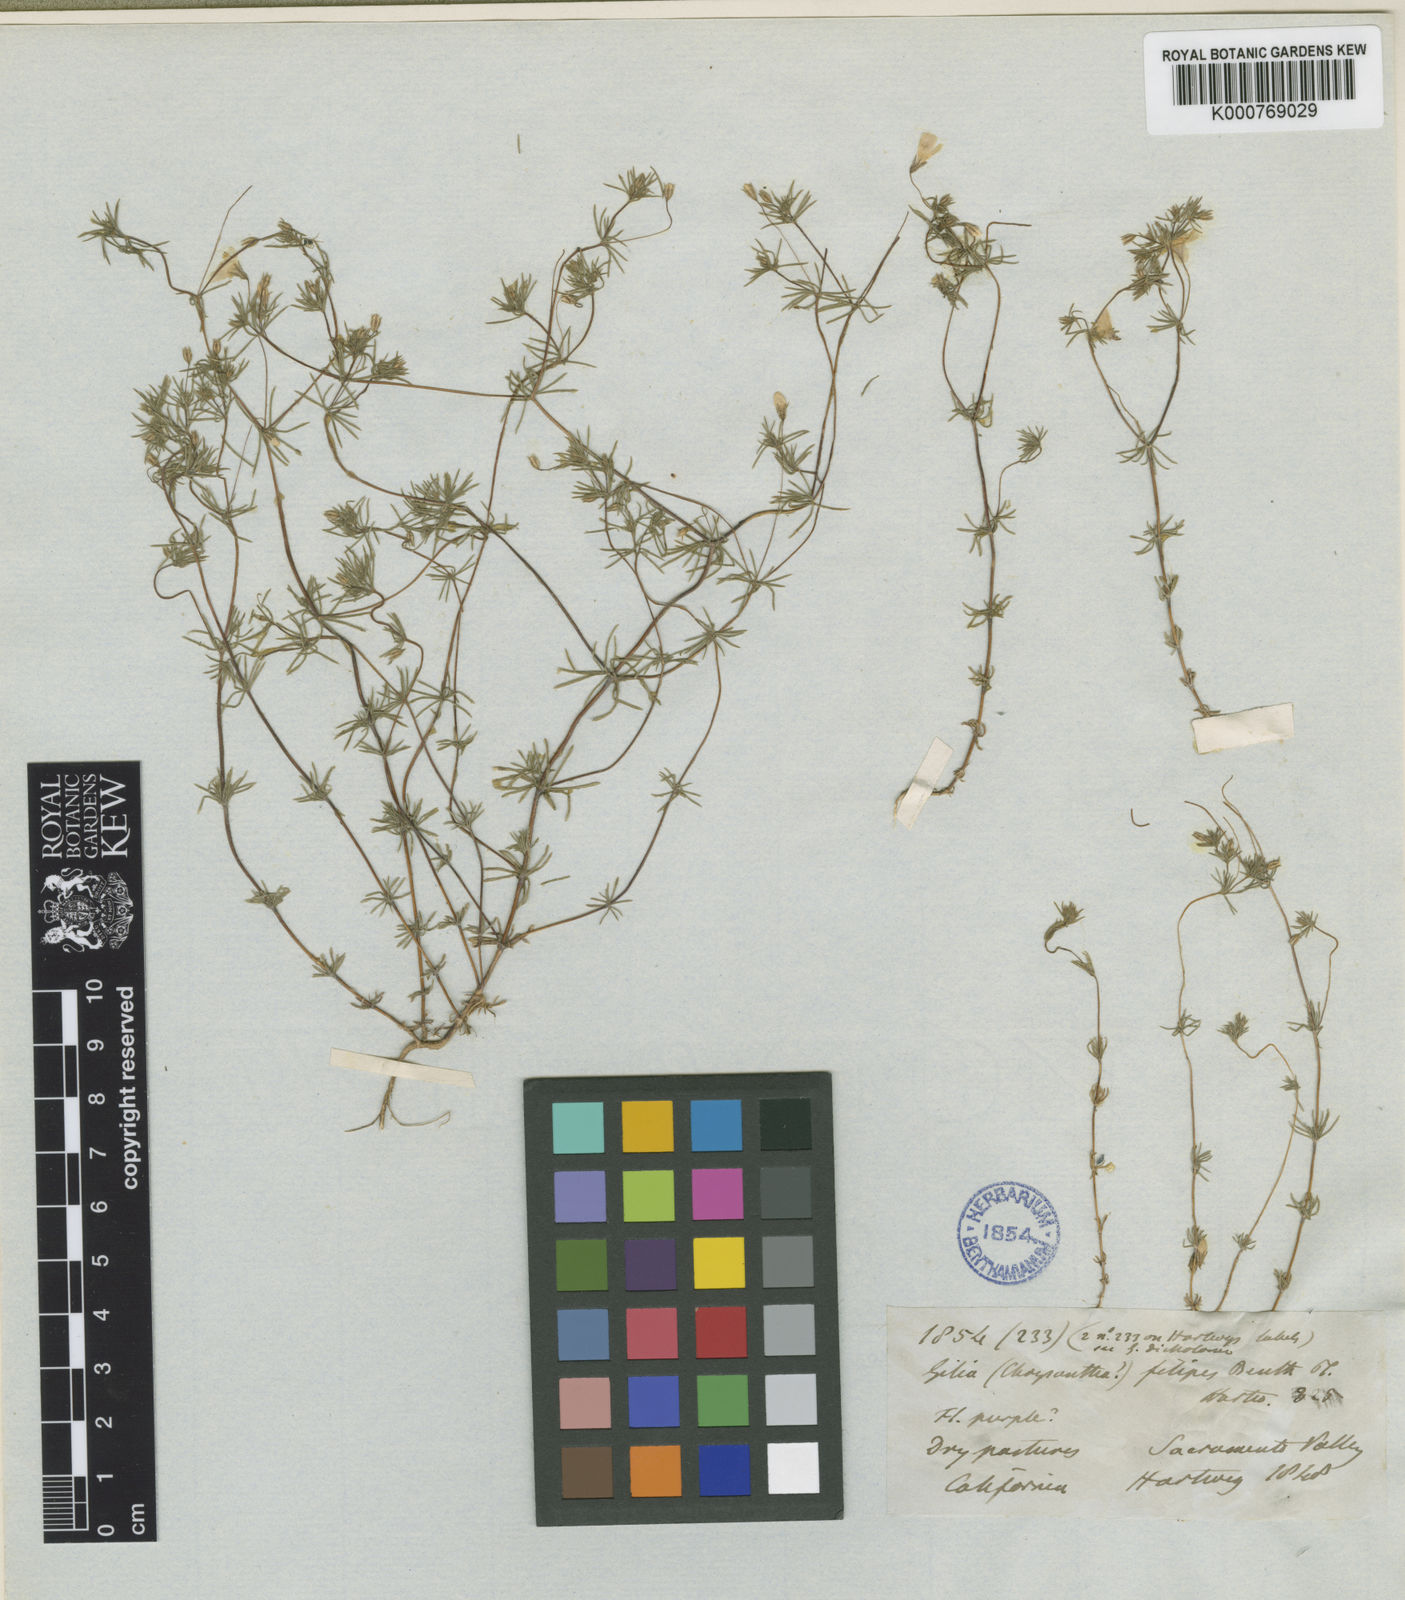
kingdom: Plantae
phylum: Tracheophyta
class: Magnoliopsida
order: Ericales
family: Polemoniaceae
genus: Leptosiphon
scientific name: Leptosiphon liniflorus
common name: Narrowflower flaxflower
